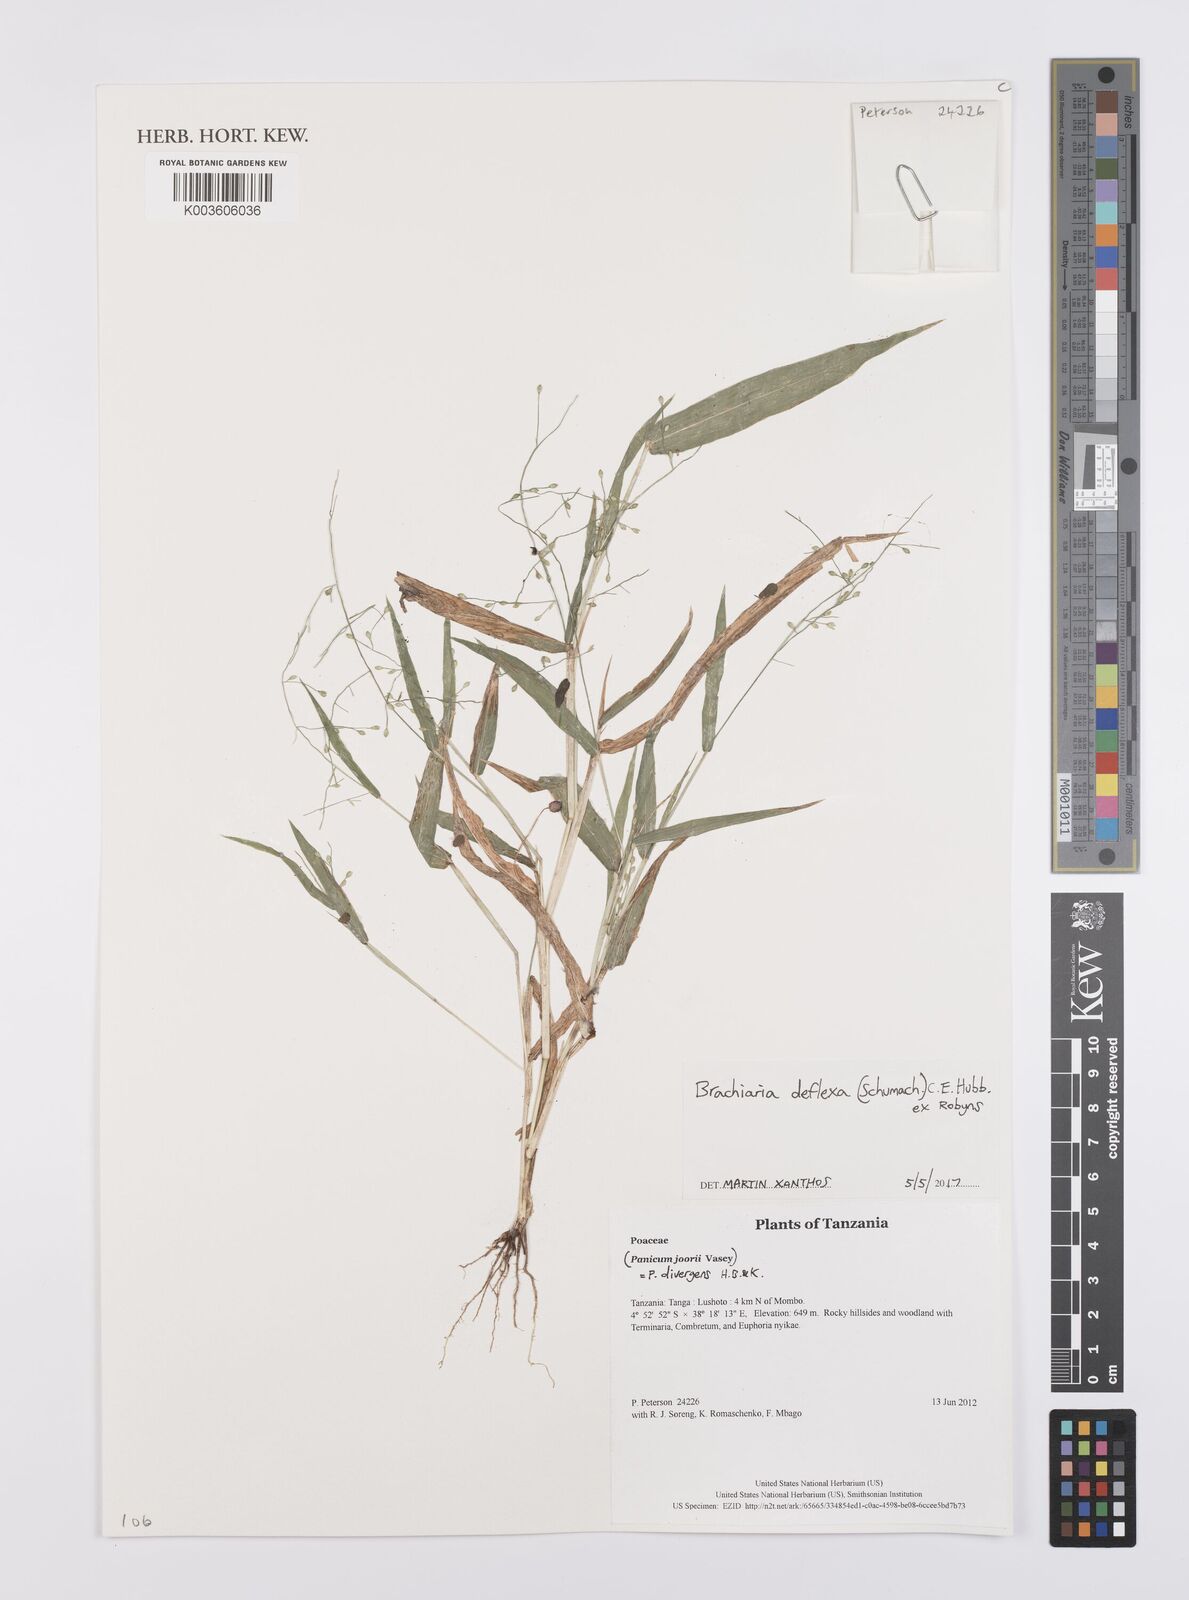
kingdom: Plantae
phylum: Tracheophyta
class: Liliopsida
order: Poales
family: Poaceae
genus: Urochloa
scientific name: Urochloa deflexa
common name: Guinea millet
